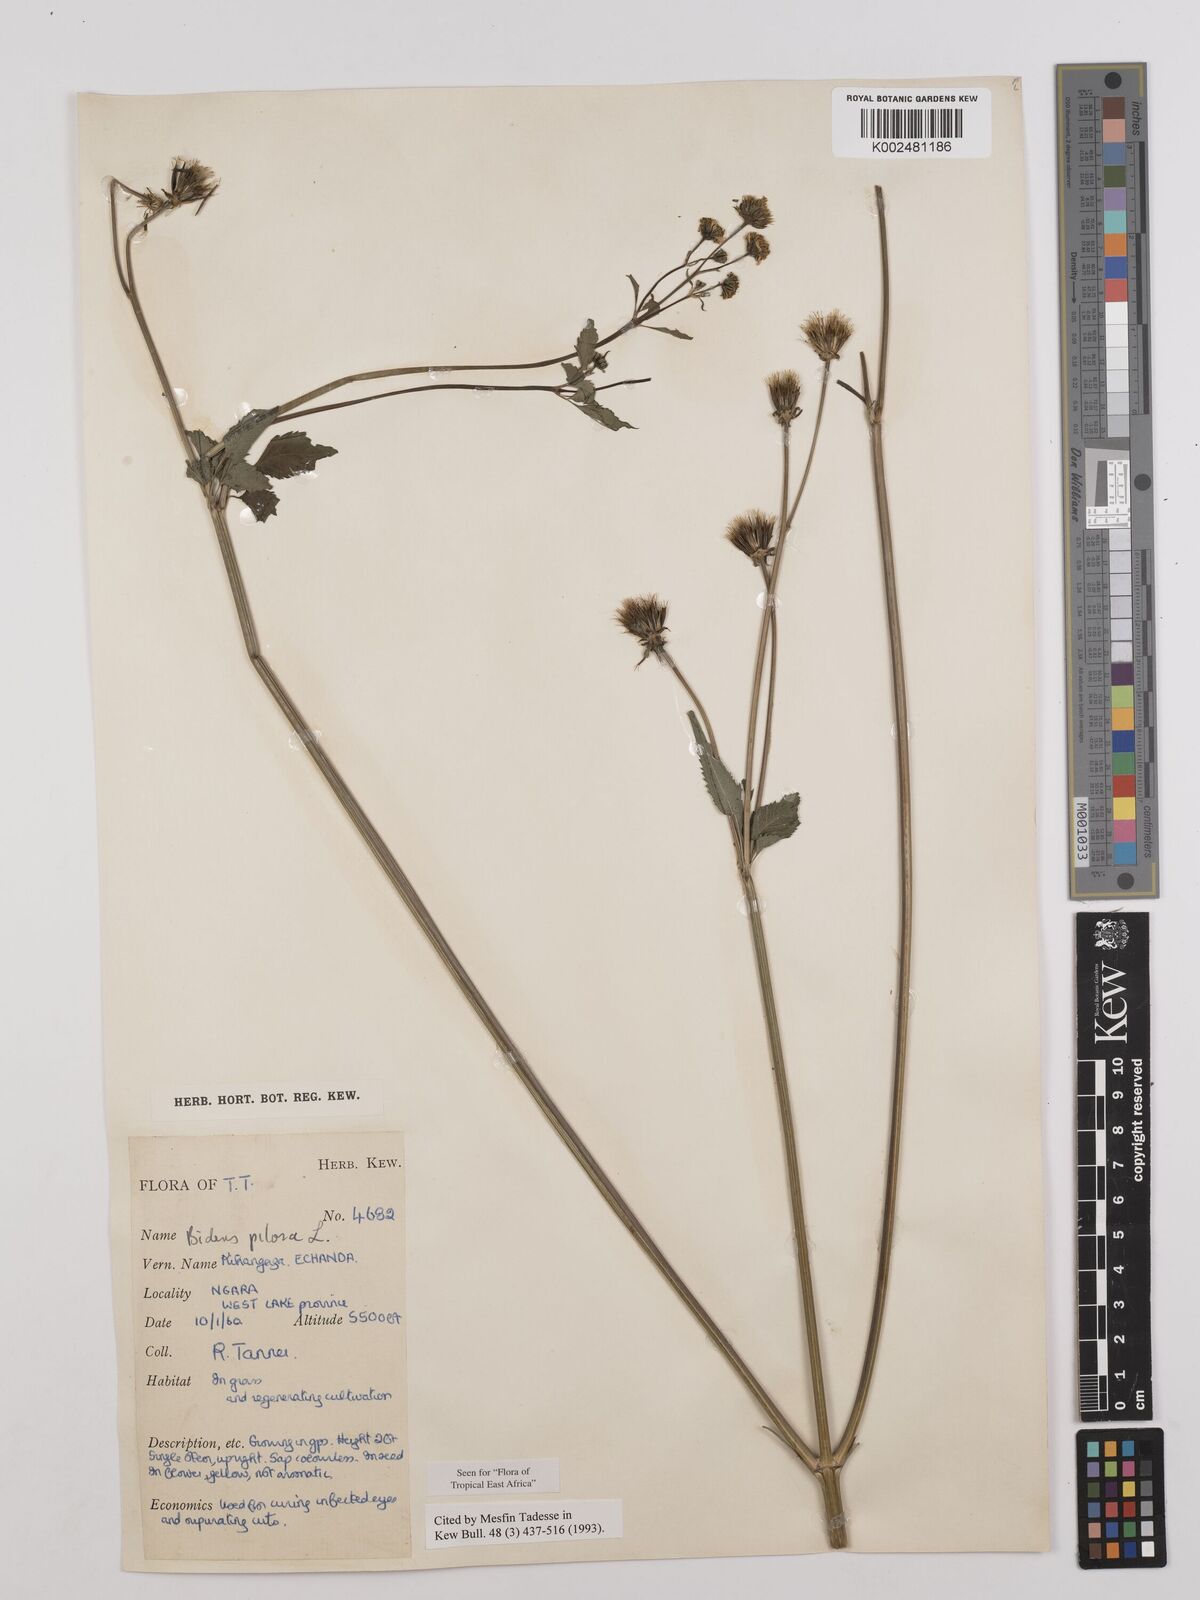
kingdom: Plantae
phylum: Tracheophyta
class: Magnoliopsida
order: Asterales
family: Asteraceae
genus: Bidens
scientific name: Bidens pilosa
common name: Black-jack
